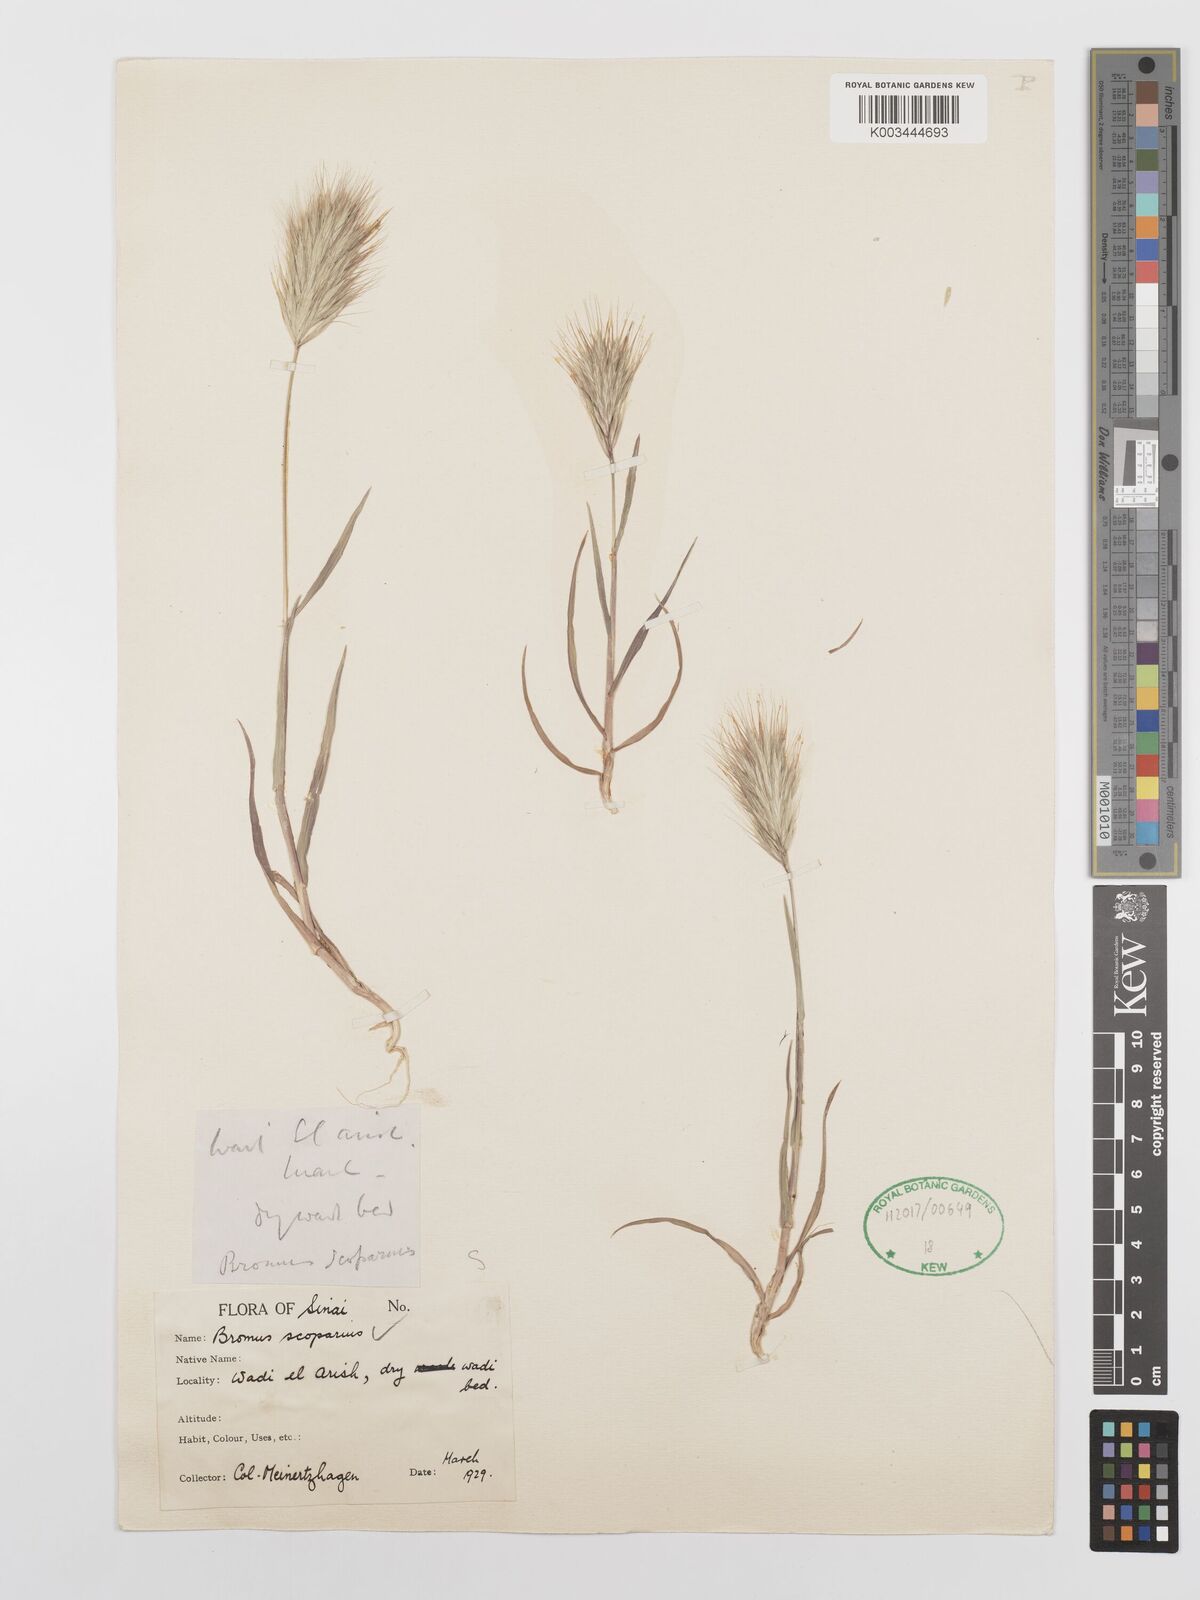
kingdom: Plantae
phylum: Tracheophyta
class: Liliopsida
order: Poales
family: Poaceae
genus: Bromus
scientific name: Bromus scoparius
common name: Broom brome
